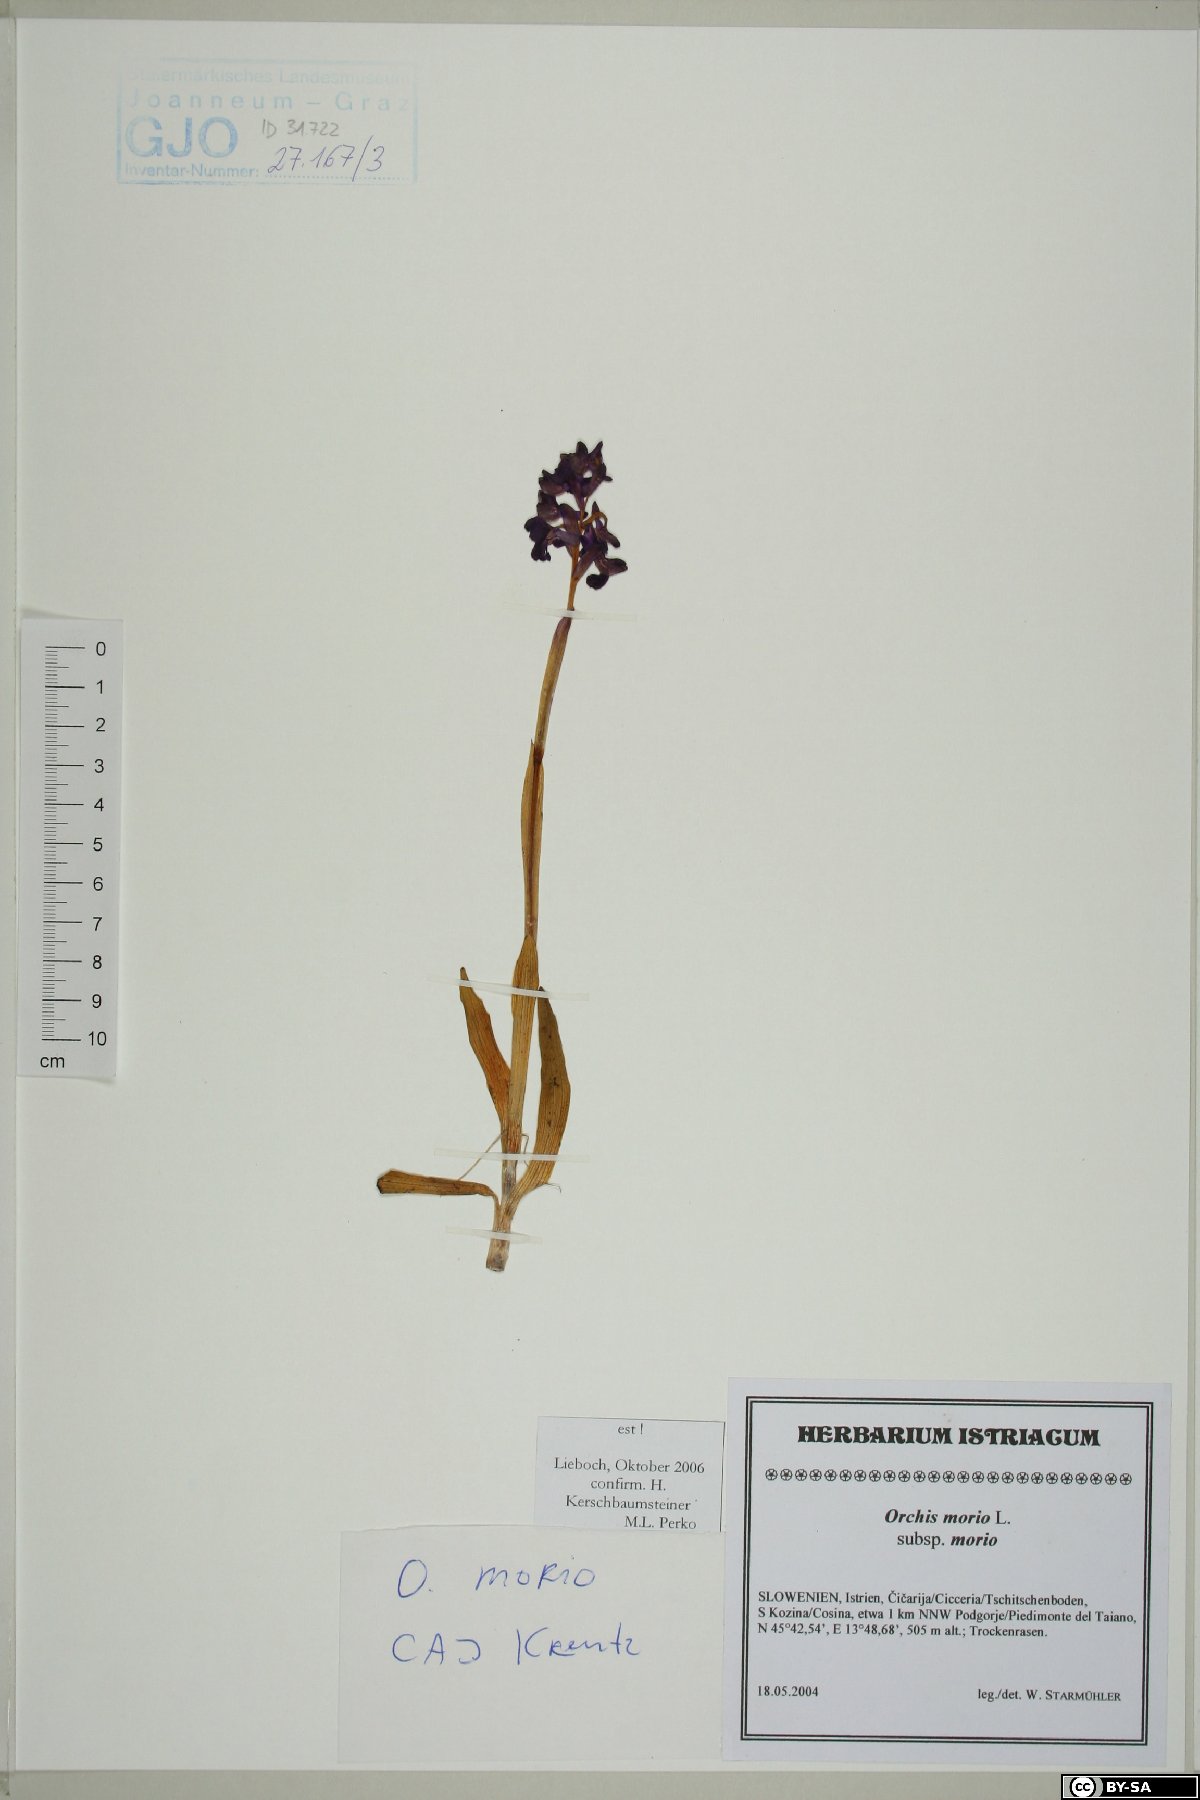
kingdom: Plantae
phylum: Tracheophyta
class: Liliopsida
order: Asparagales
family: Orchidaceae
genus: Anacamptis
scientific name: Anacamptis morio
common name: Green-winged orchid
